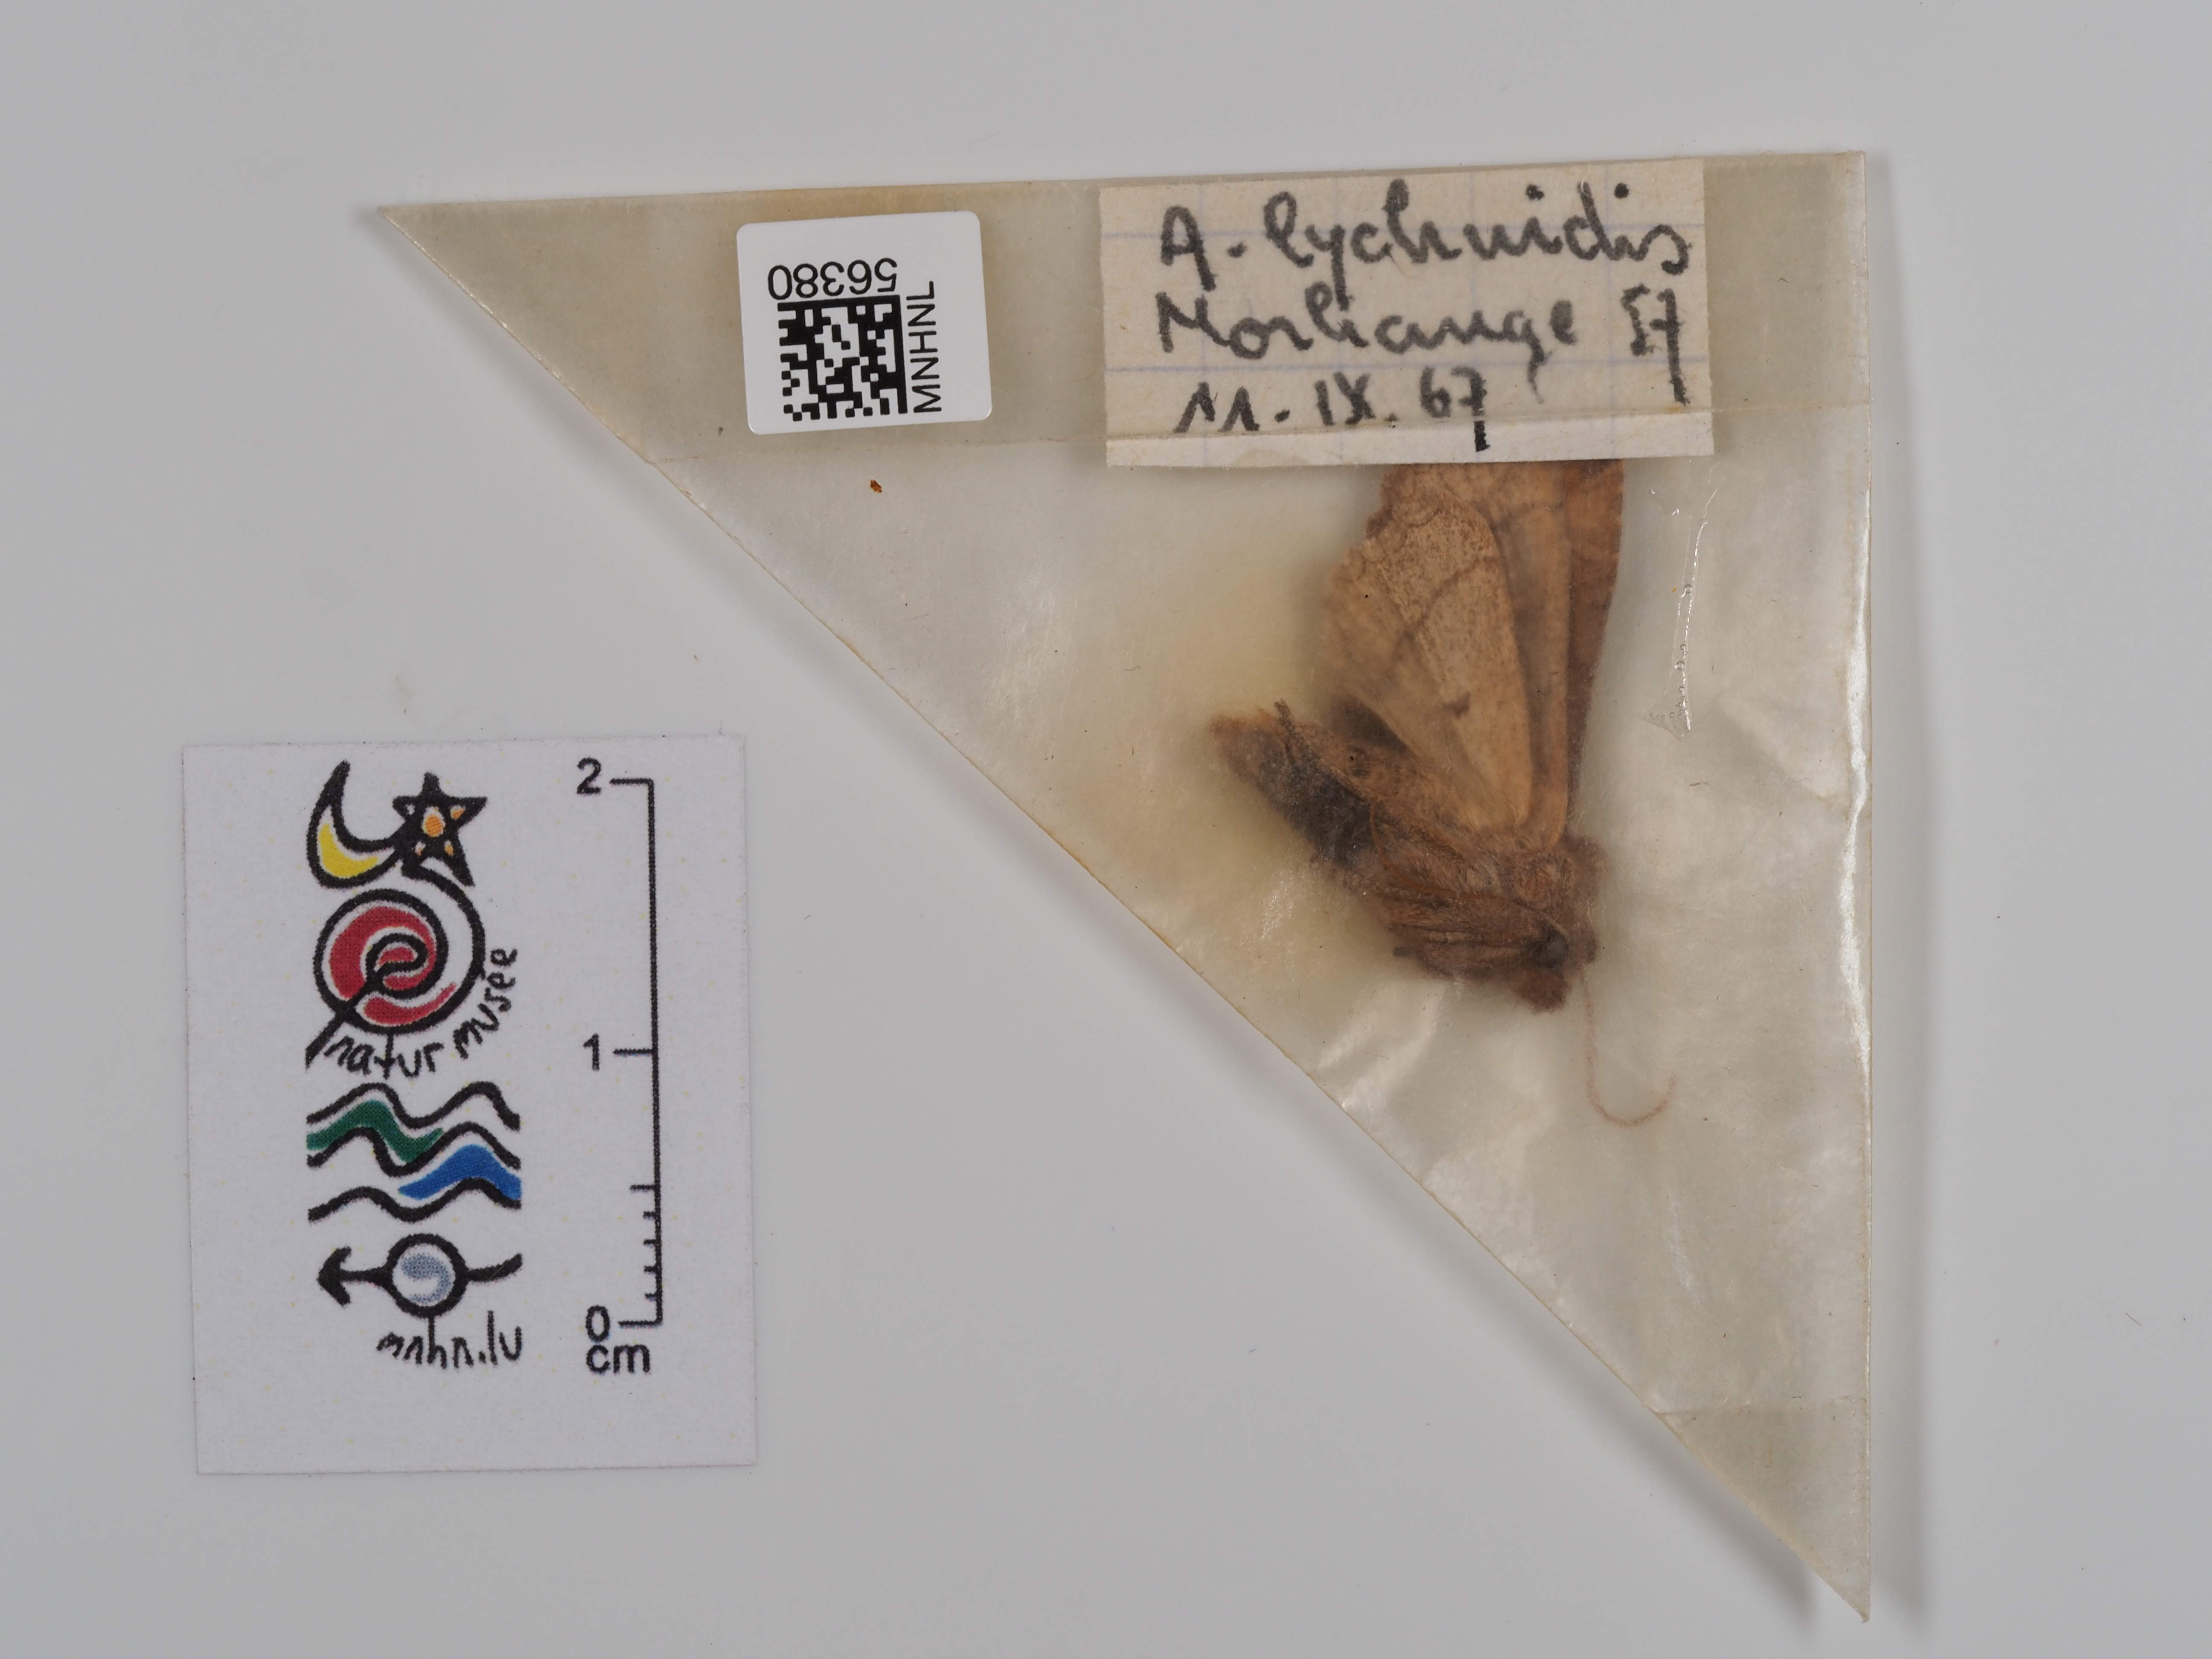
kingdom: Animalia
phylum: Arthropoda
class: Insecta
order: Lepidoptera
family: Noctuidae
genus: Agrochola
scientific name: Agrochola lychnidis
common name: Beaded chestnut
